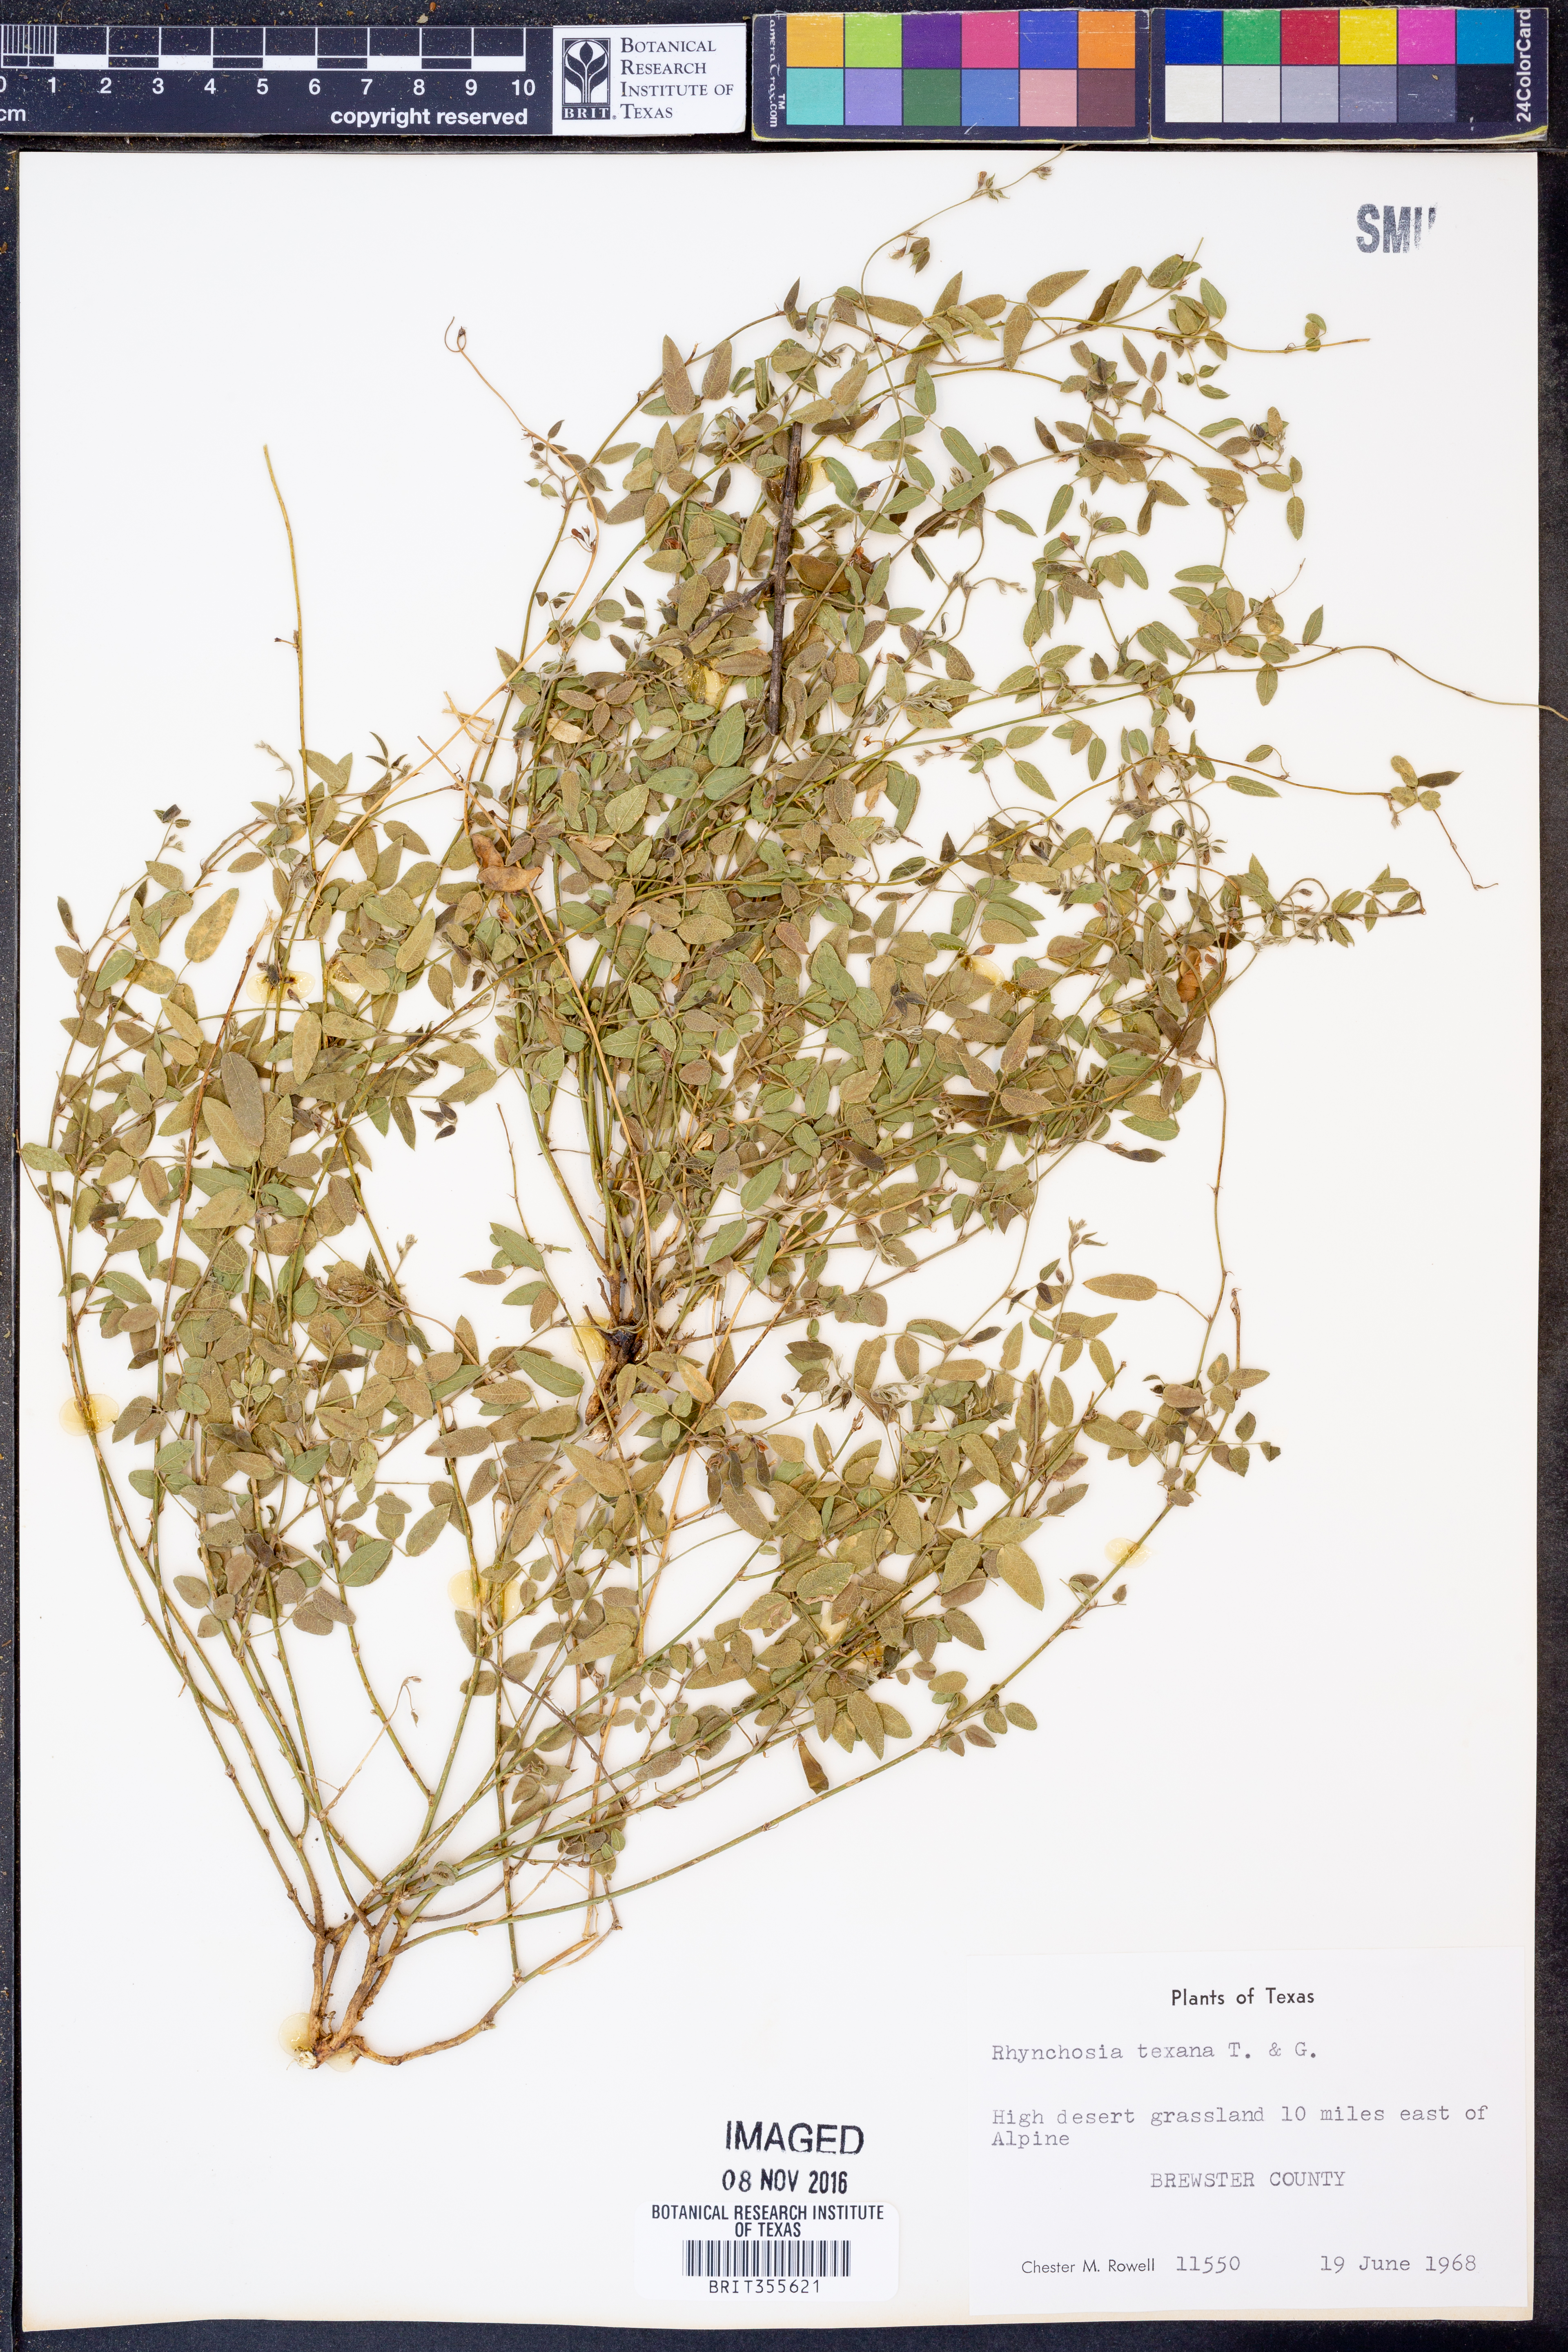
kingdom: Plantae
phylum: Tracheophyta
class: Magnoliopsida
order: Fabales
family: Fabaceae
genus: Rhynchosia
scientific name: Rhynchosia senna
